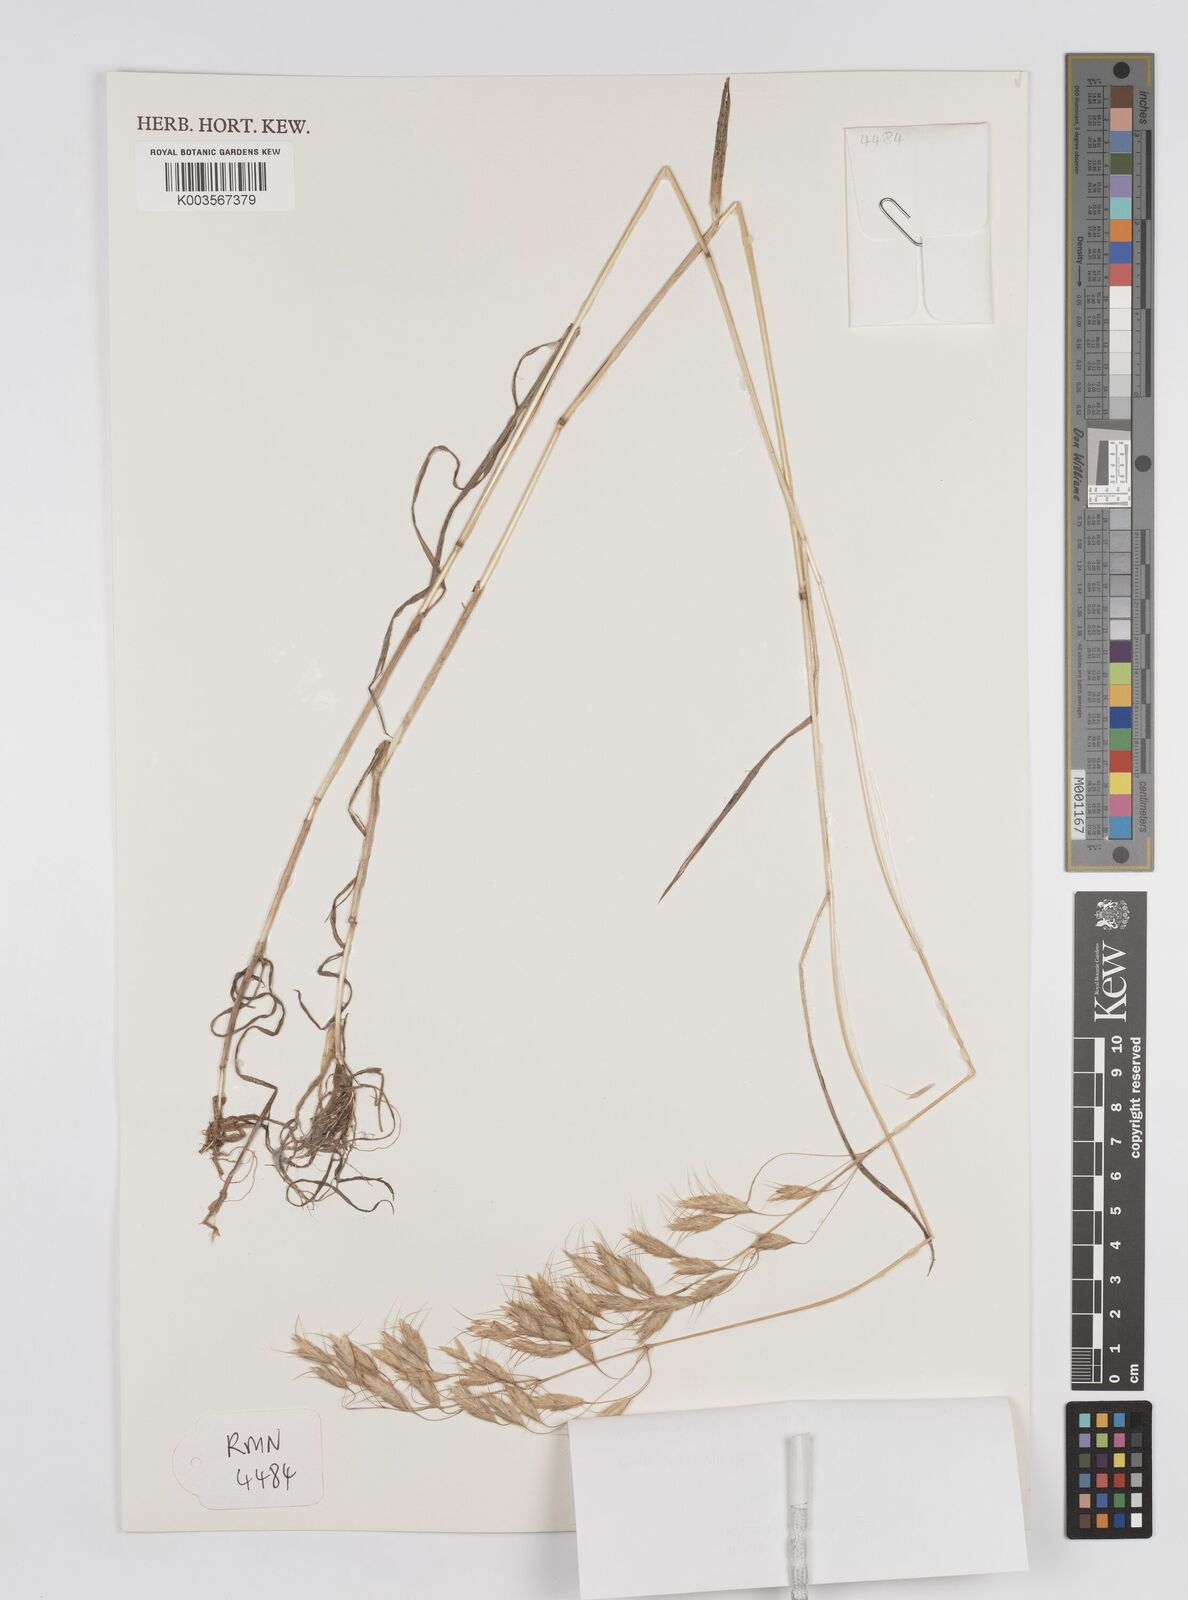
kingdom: Plantae
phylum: Tracheophyta
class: Liliopsida
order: Poales
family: Poaceae
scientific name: Poaceae
